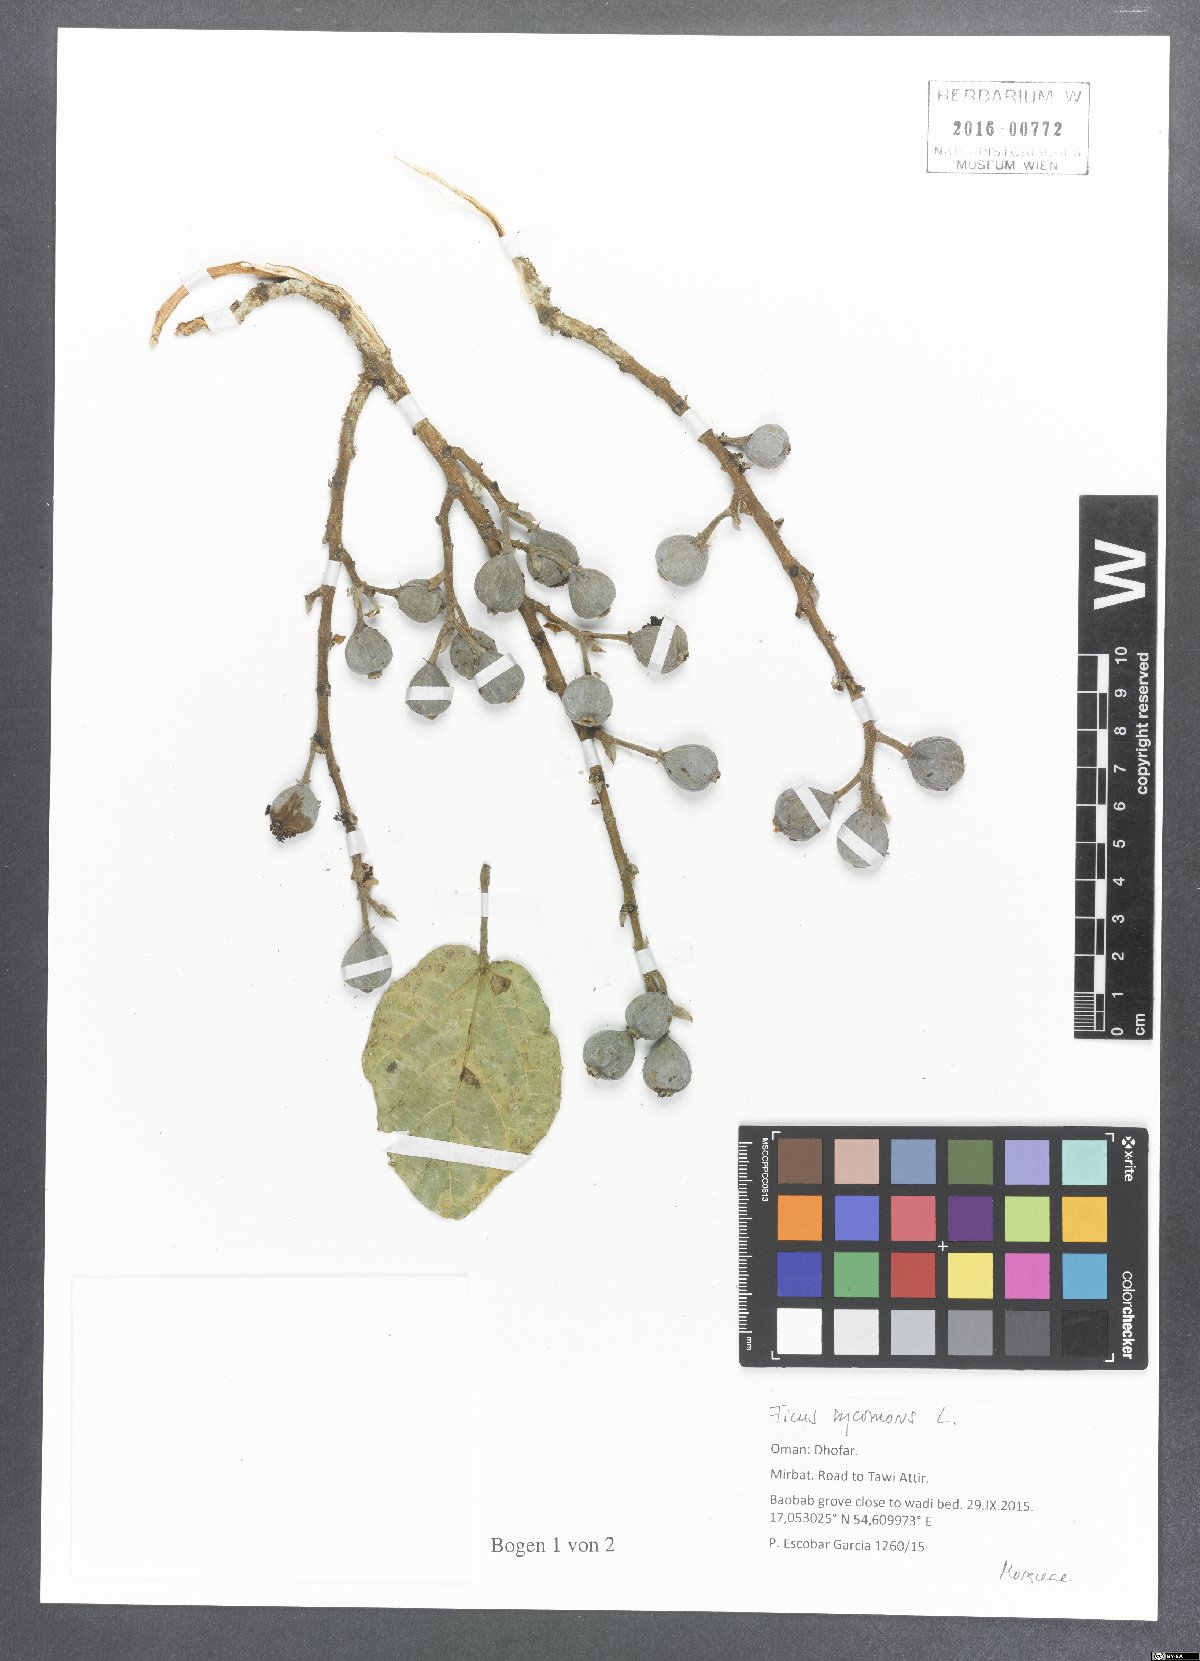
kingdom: Plantae
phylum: Tracheophyta
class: Magnoliopsida
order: Rosales
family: Moraceae
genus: Ficus
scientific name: Ficus sycomorus
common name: Sycomore
